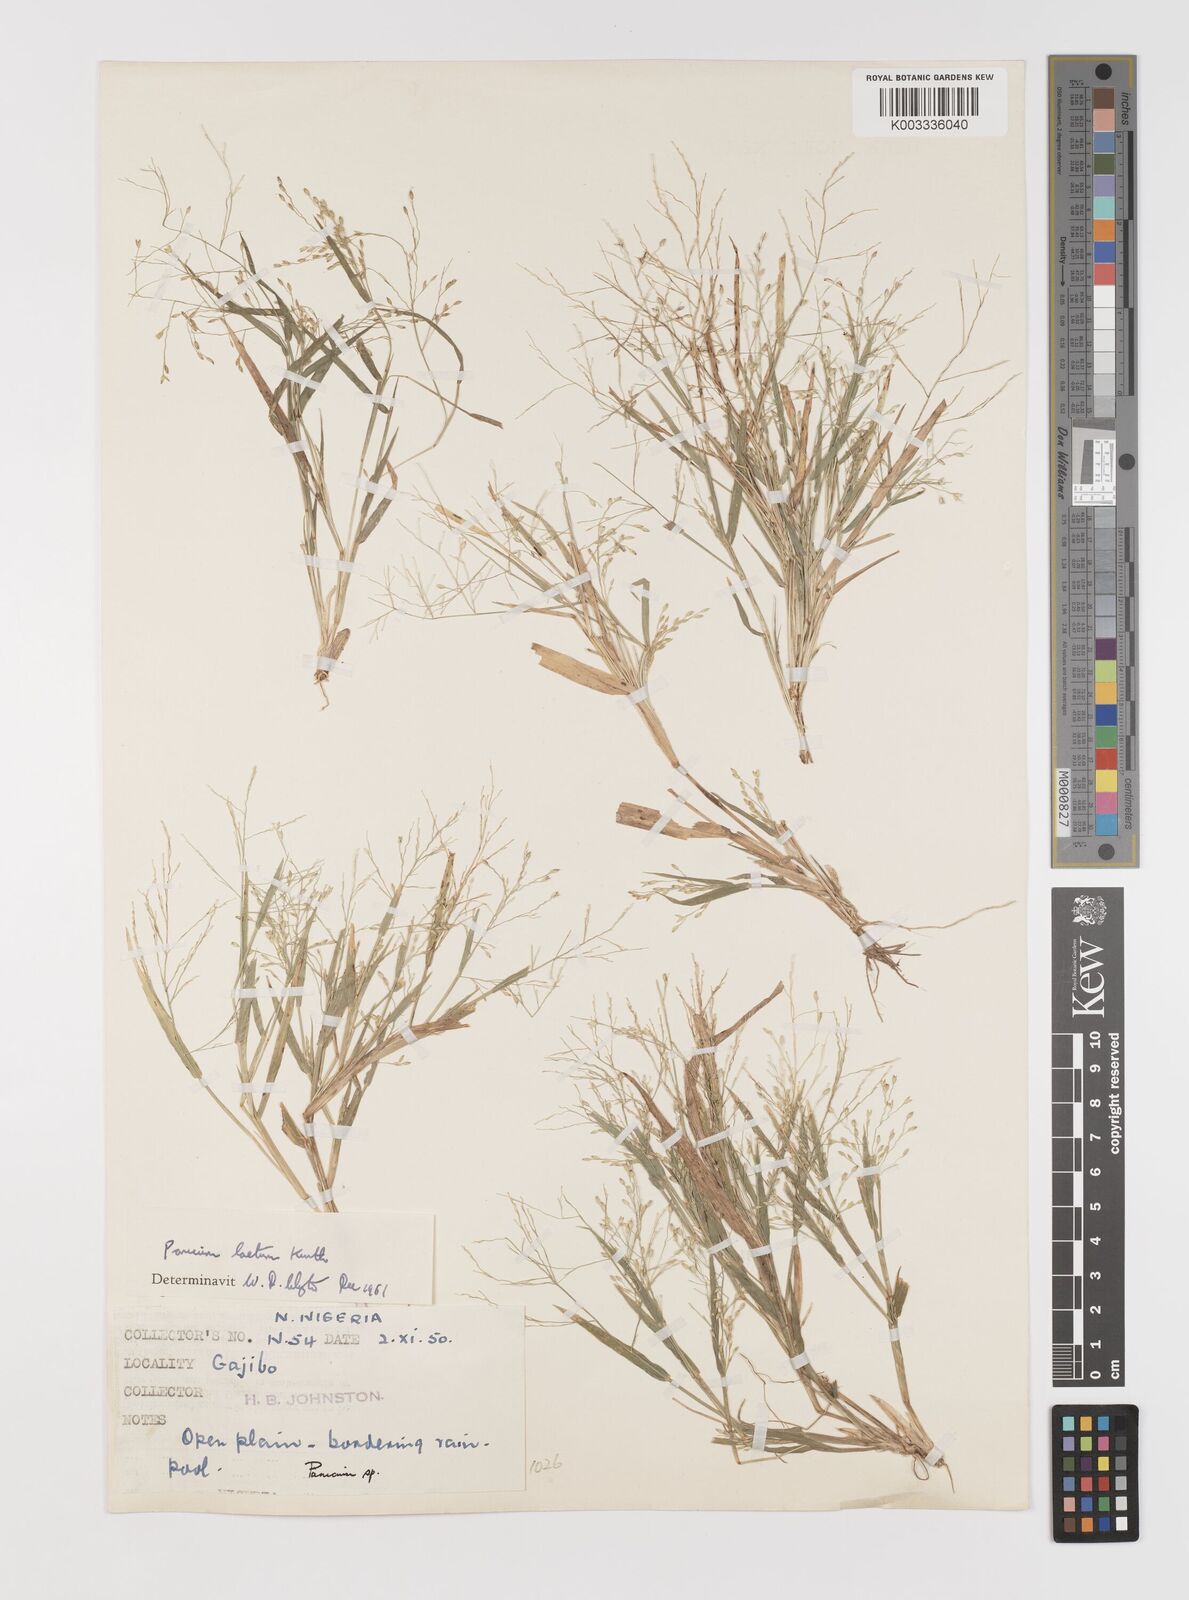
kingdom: Plantae
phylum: Tracheophyta
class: Liliopsida
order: Poales
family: Poaceae
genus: Panicum
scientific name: Panicum laetum
